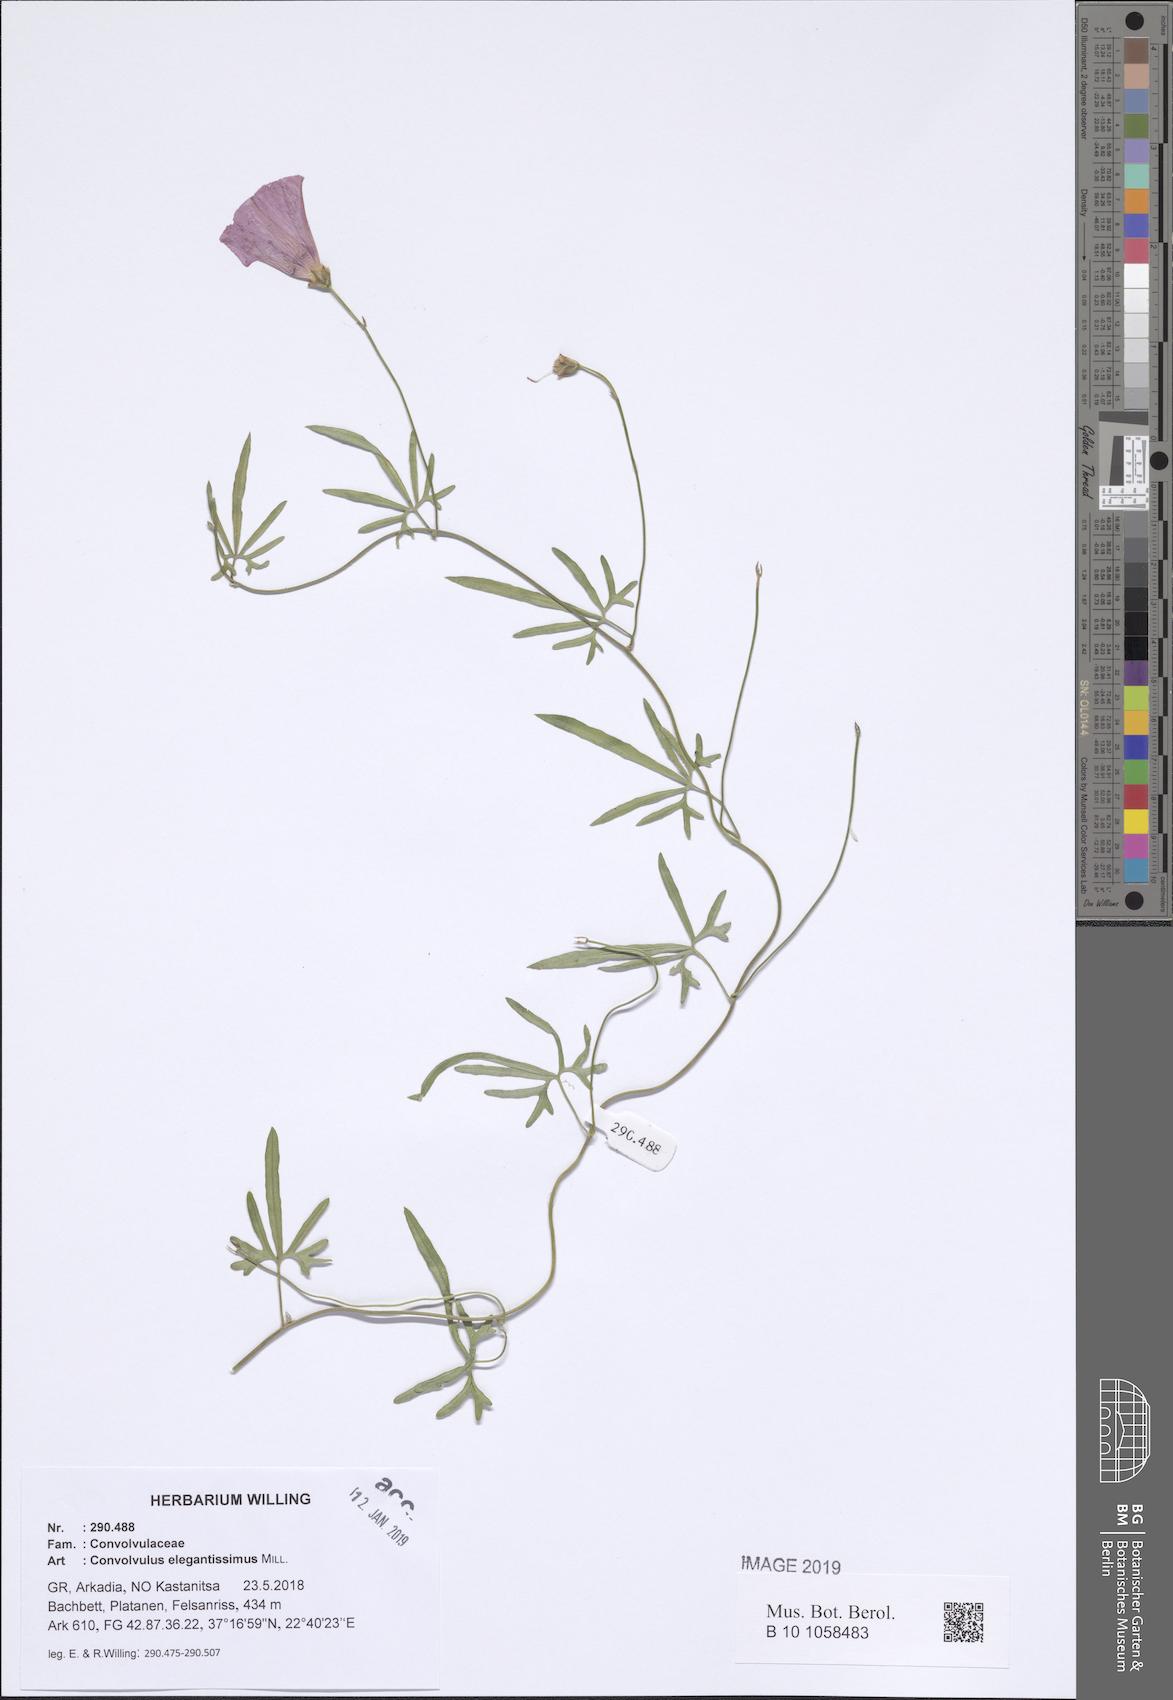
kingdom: Plantae
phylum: Tracheophyta
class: Magnoliopsida
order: Solanales
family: Convolvulaceae
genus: Convolvulus
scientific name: Convolvulus elegantissimus
